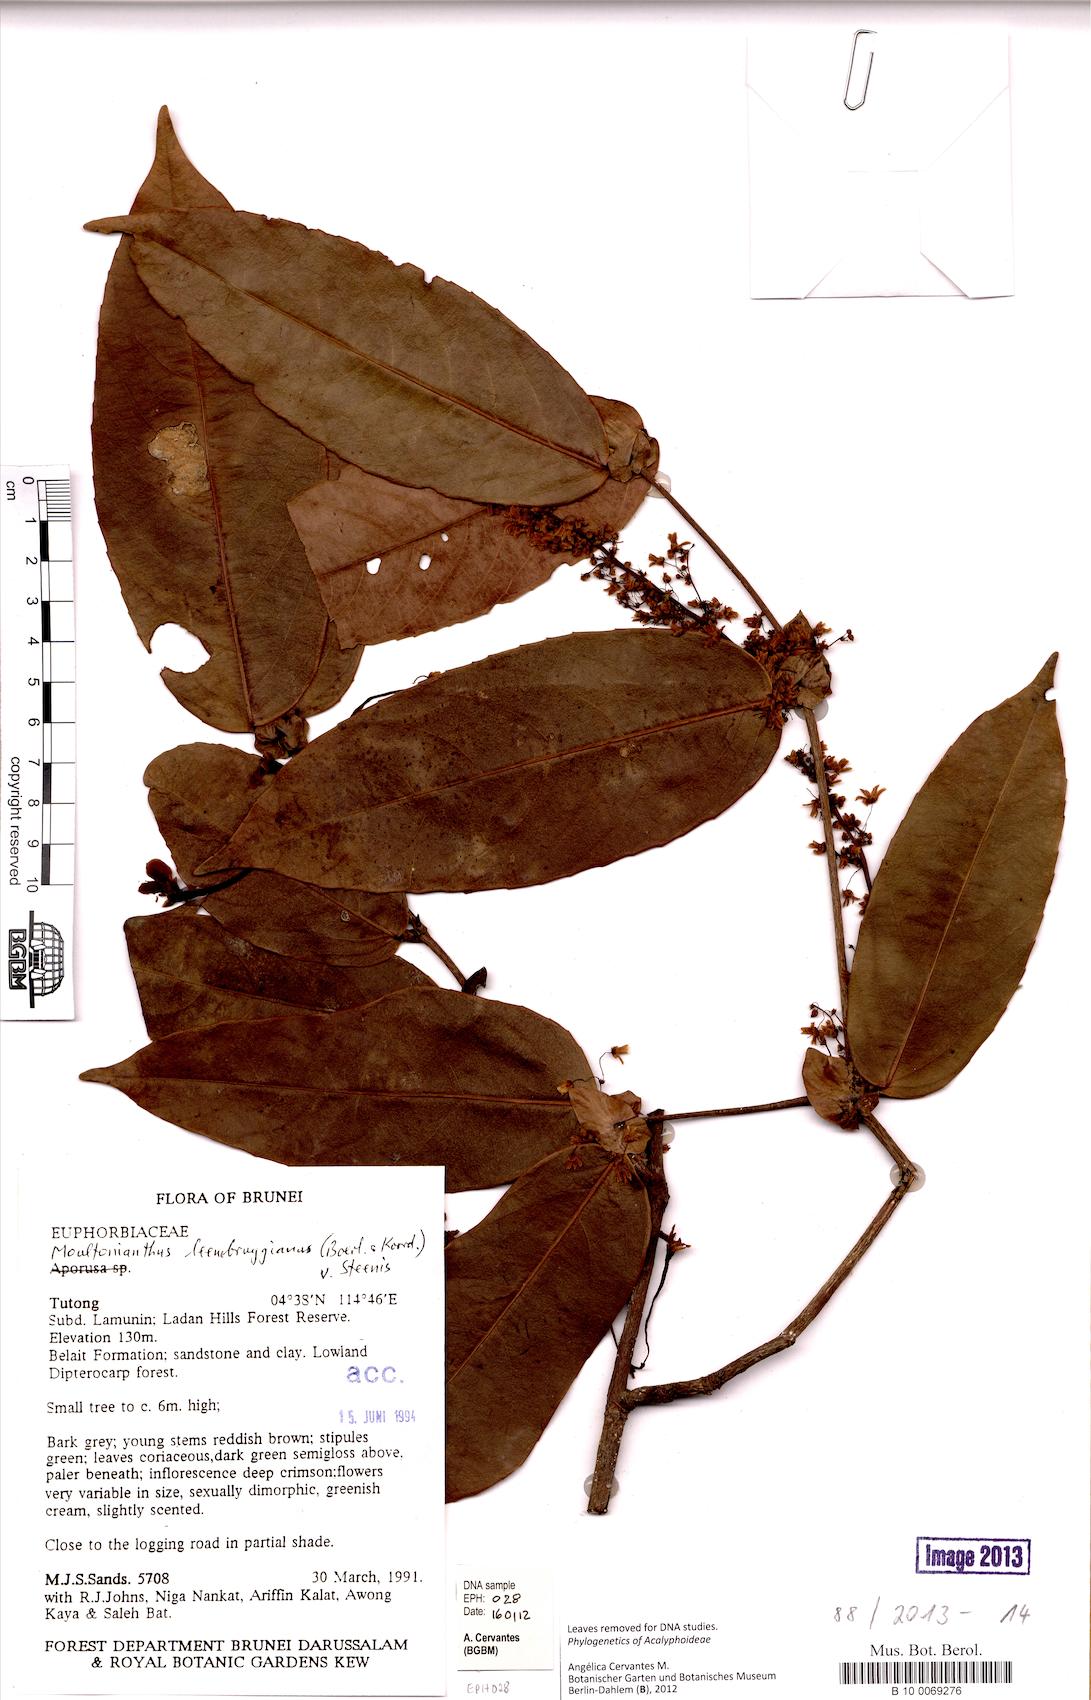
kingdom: Plantae
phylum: Tracheophyta
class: Magnoliopsida
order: Malpighiales
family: Euphorbiaceae
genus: Moultonianthus
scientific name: Moultonianthus leembruggianus
